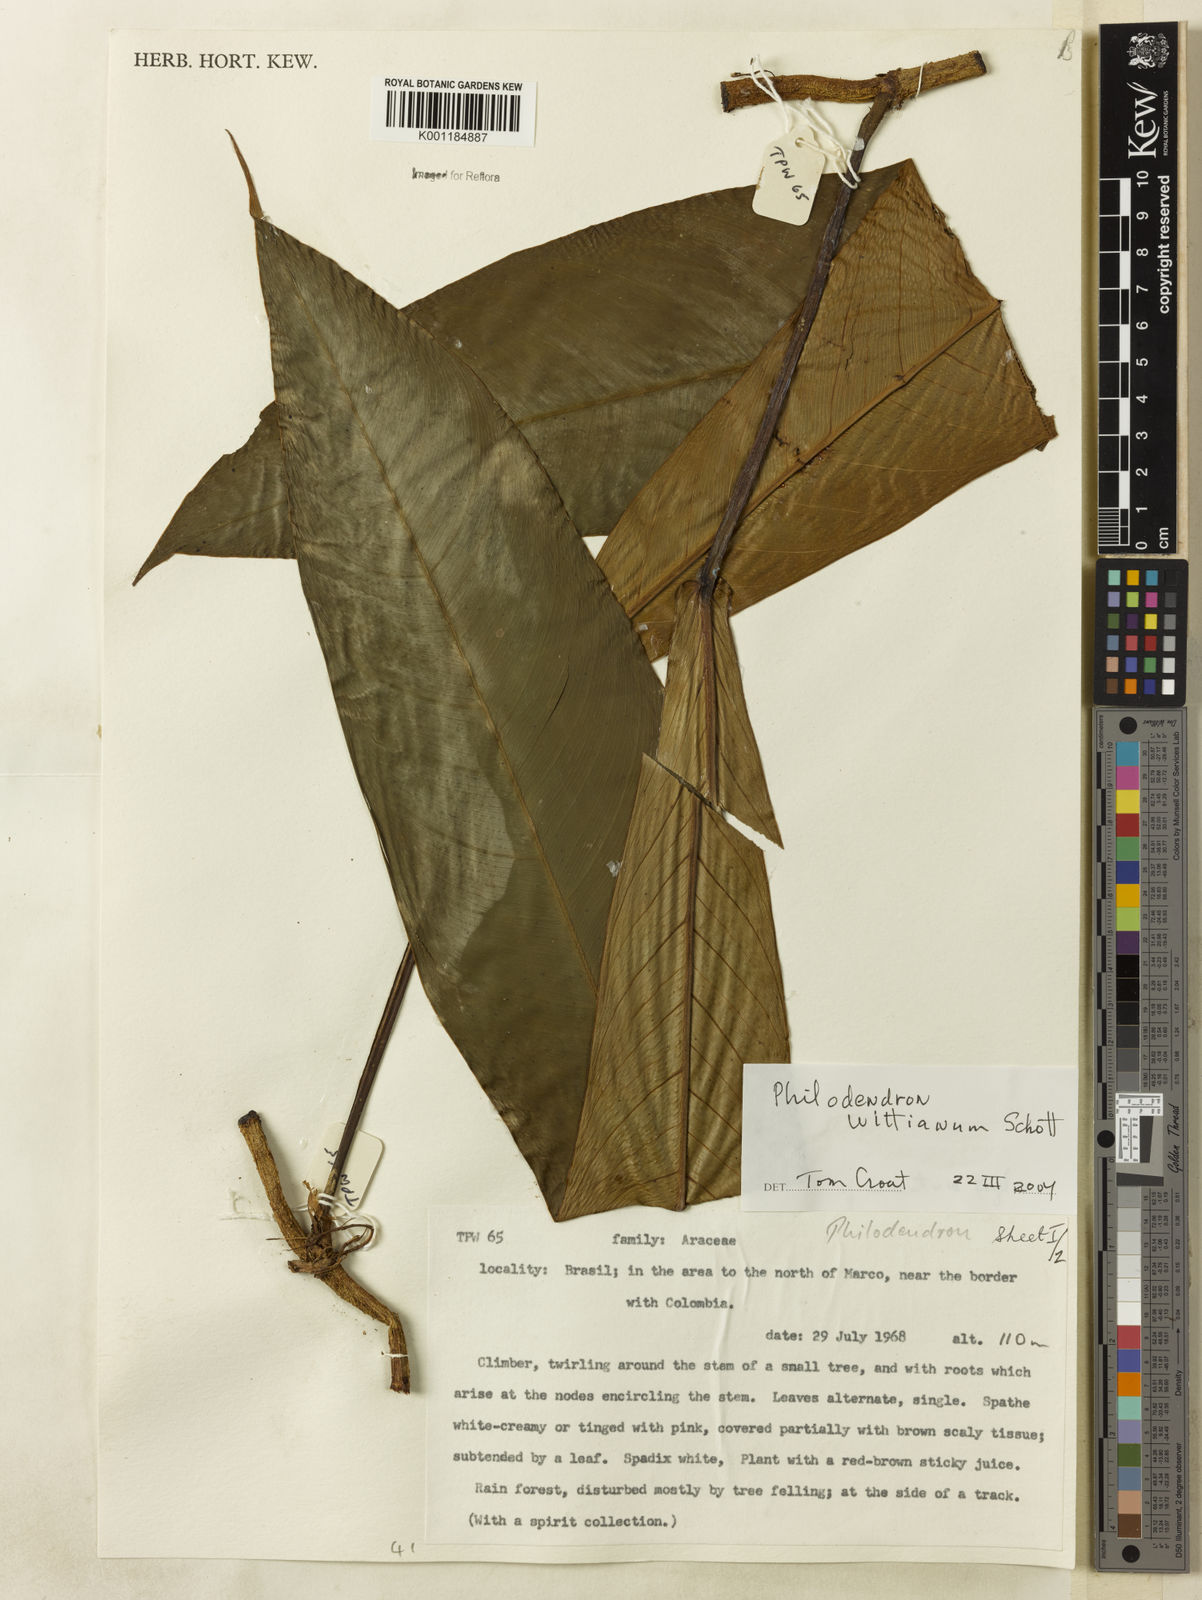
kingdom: Plantae
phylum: Tracheophyta
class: Liliopsida
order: Alismatales
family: Araceae
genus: Philodendron
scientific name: Philodendron wittianum
